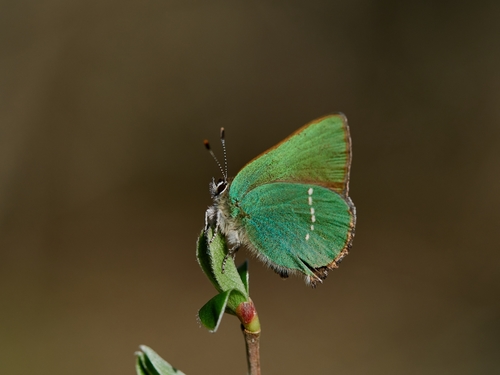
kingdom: Animalia
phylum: Arthropoda
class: Insecta
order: Lepidoptera
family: Lycaenidae
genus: Callophrys
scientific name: Callophrys rubi
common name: Green hairstreak
